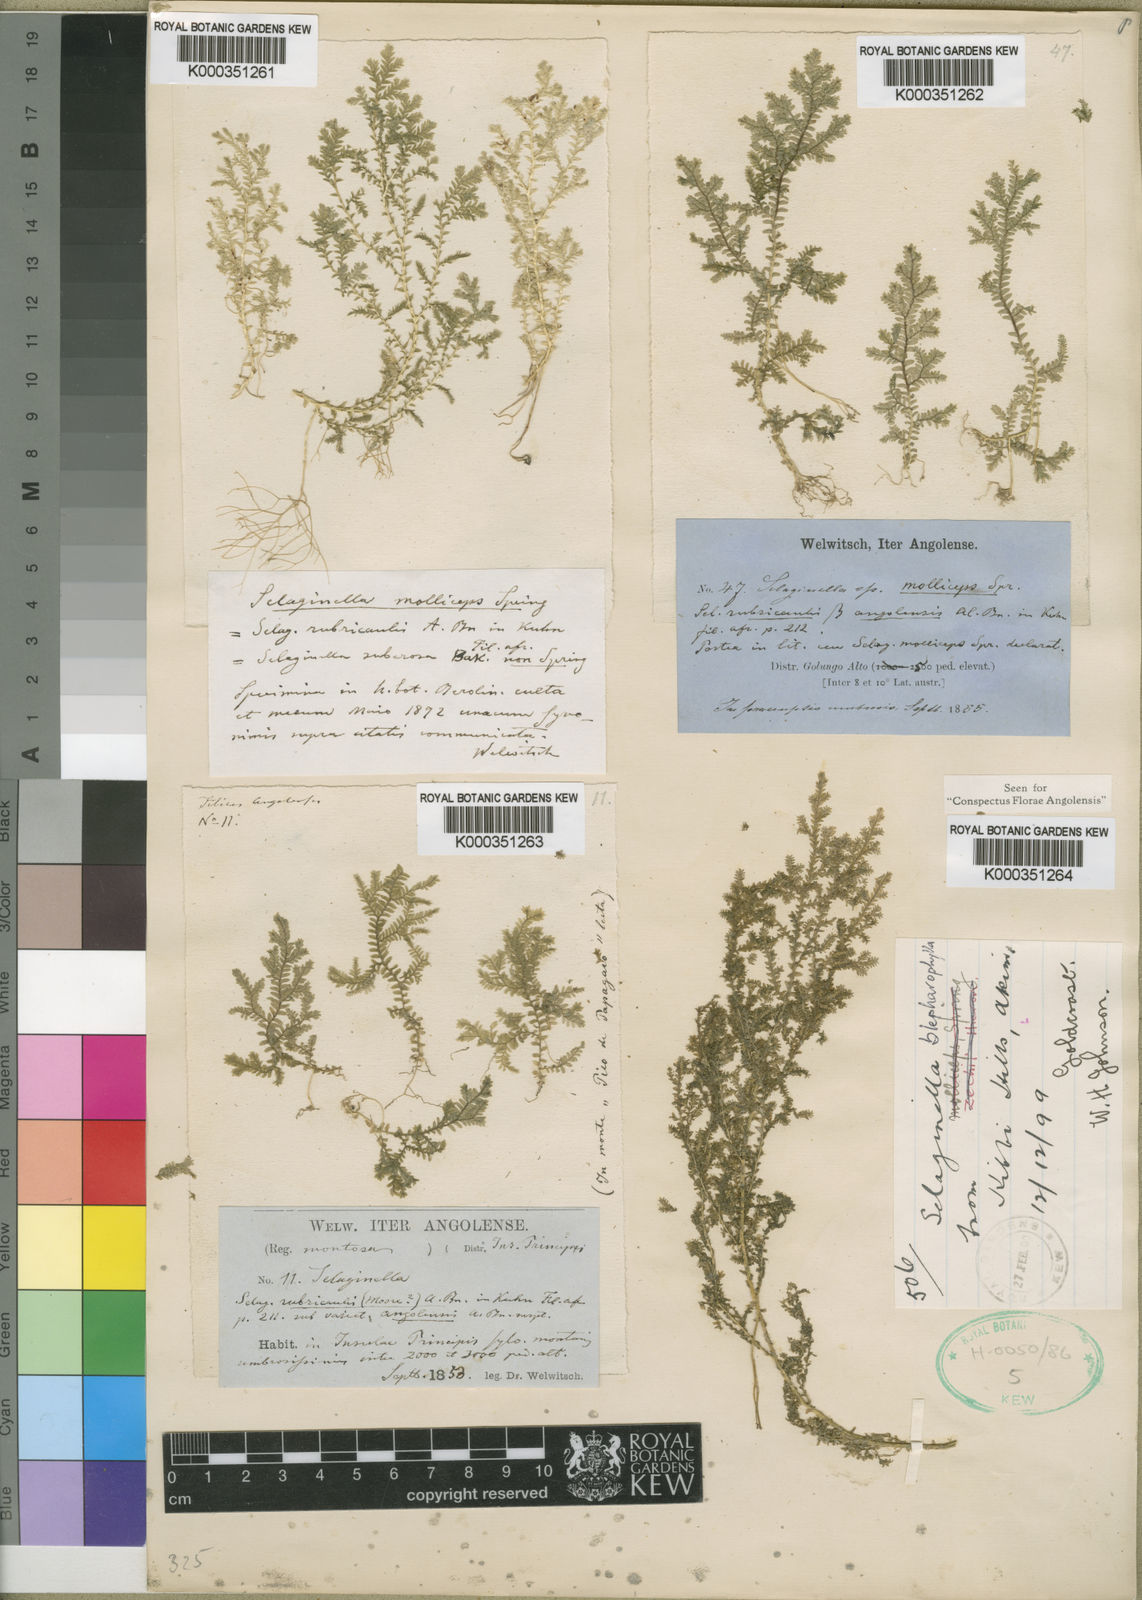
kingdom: Plantae
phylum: Tracheophyta
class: Lycopodiopsida
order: Selaginellales
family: Selaginellaceae
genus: Selaginella
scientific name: Selaginella molliceps
